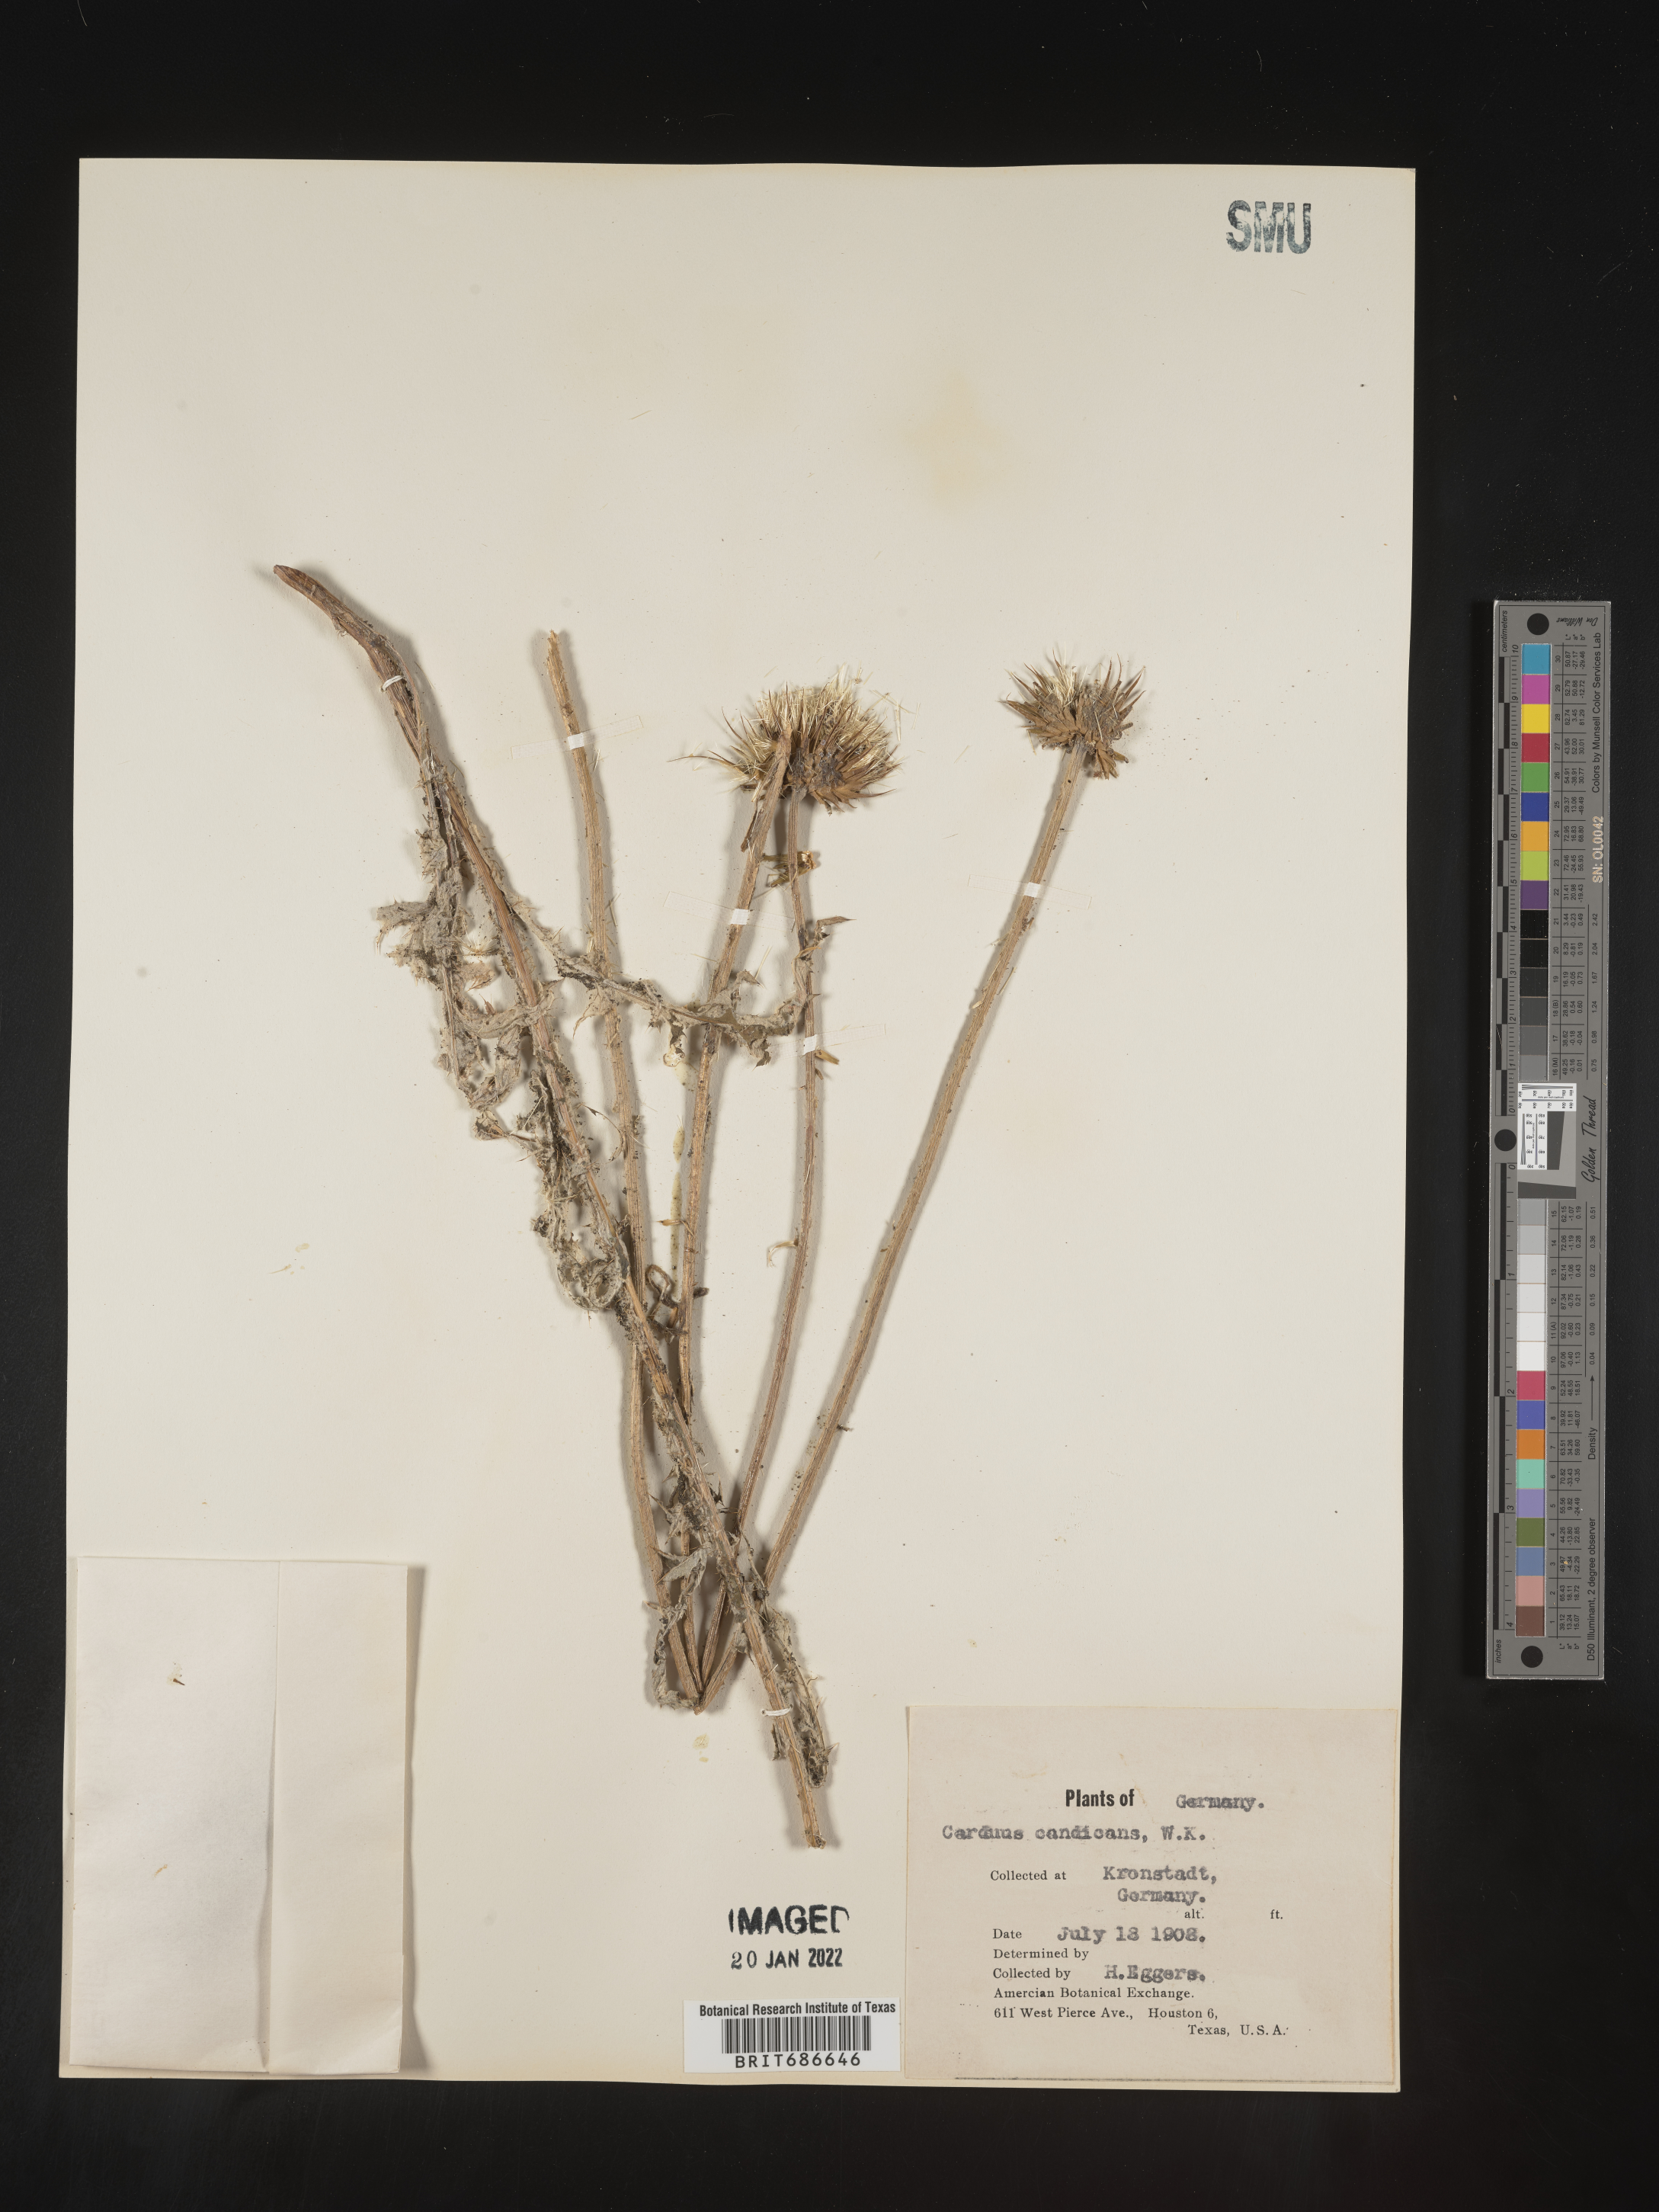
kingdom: Plantae
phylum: Tracheophyta
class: Magnoliopsida
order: Asterales
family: Asteraceae
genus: Carduus
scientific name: Carduus
